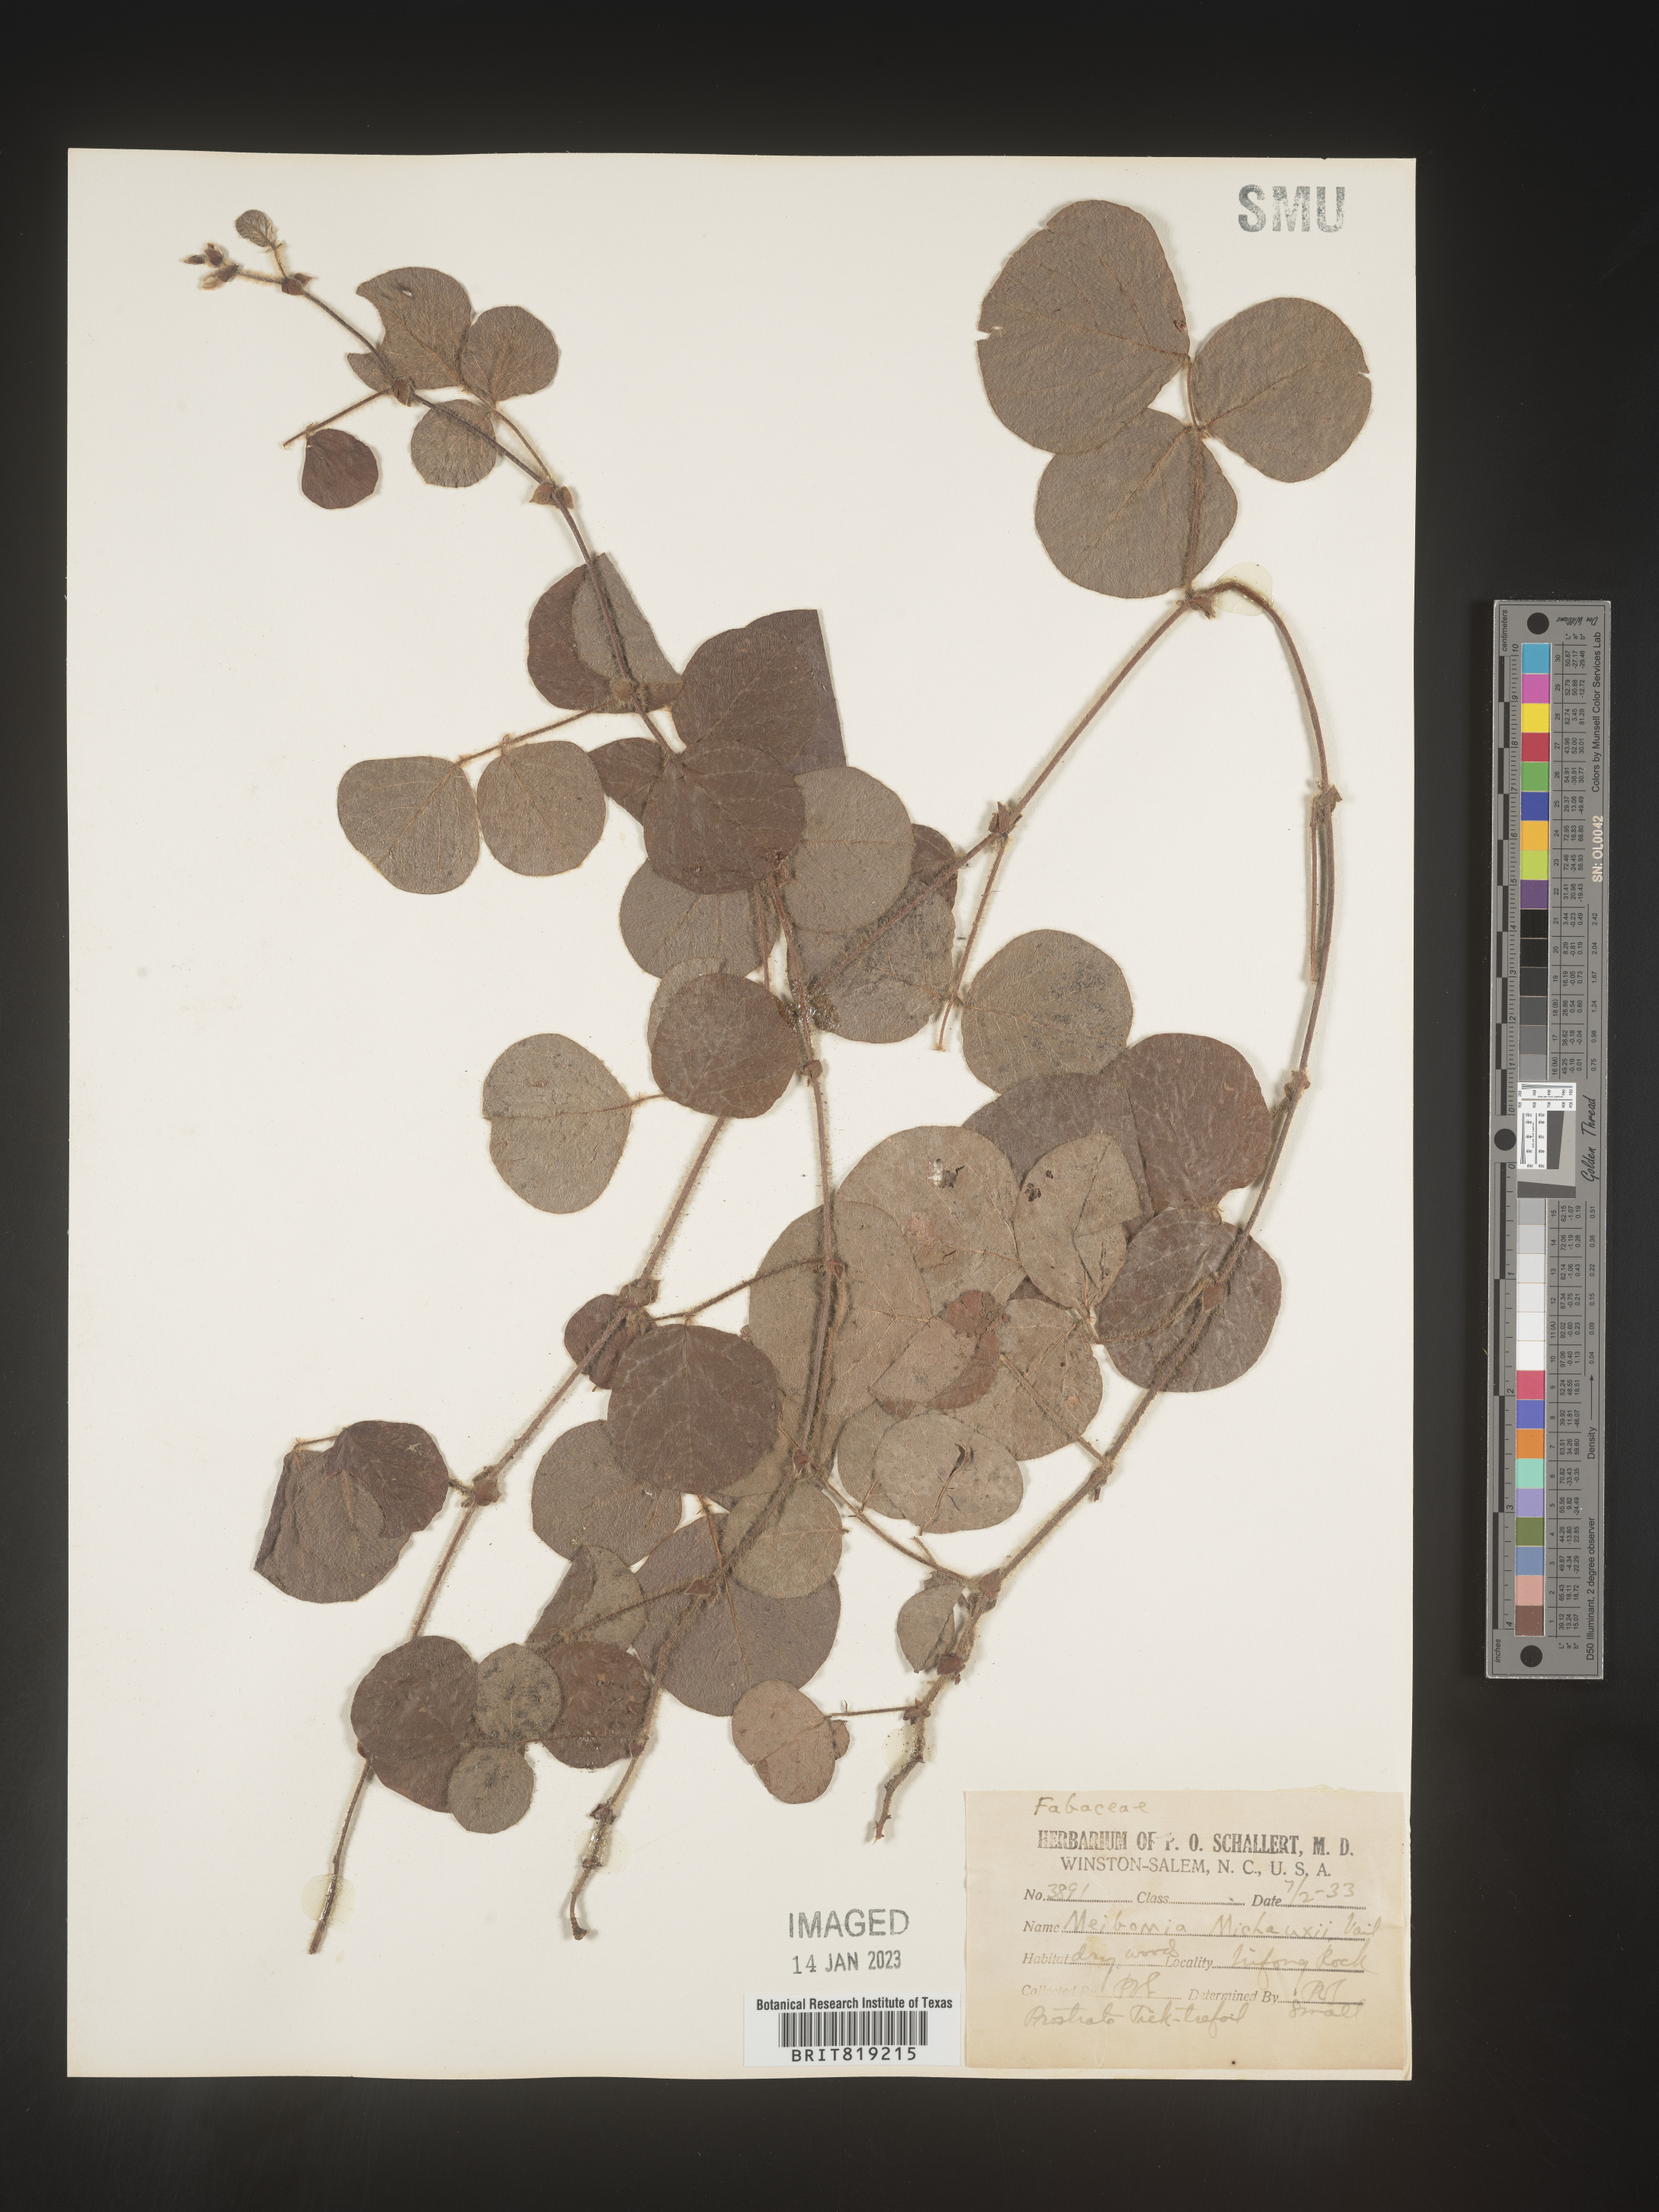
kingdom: Plantae
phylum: Tracheophyta
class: Magnoliopsida
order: Fabales
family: Fabaceae
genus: Desmodium
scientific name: Desmodium rotundifolium
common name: Dollarleaf
